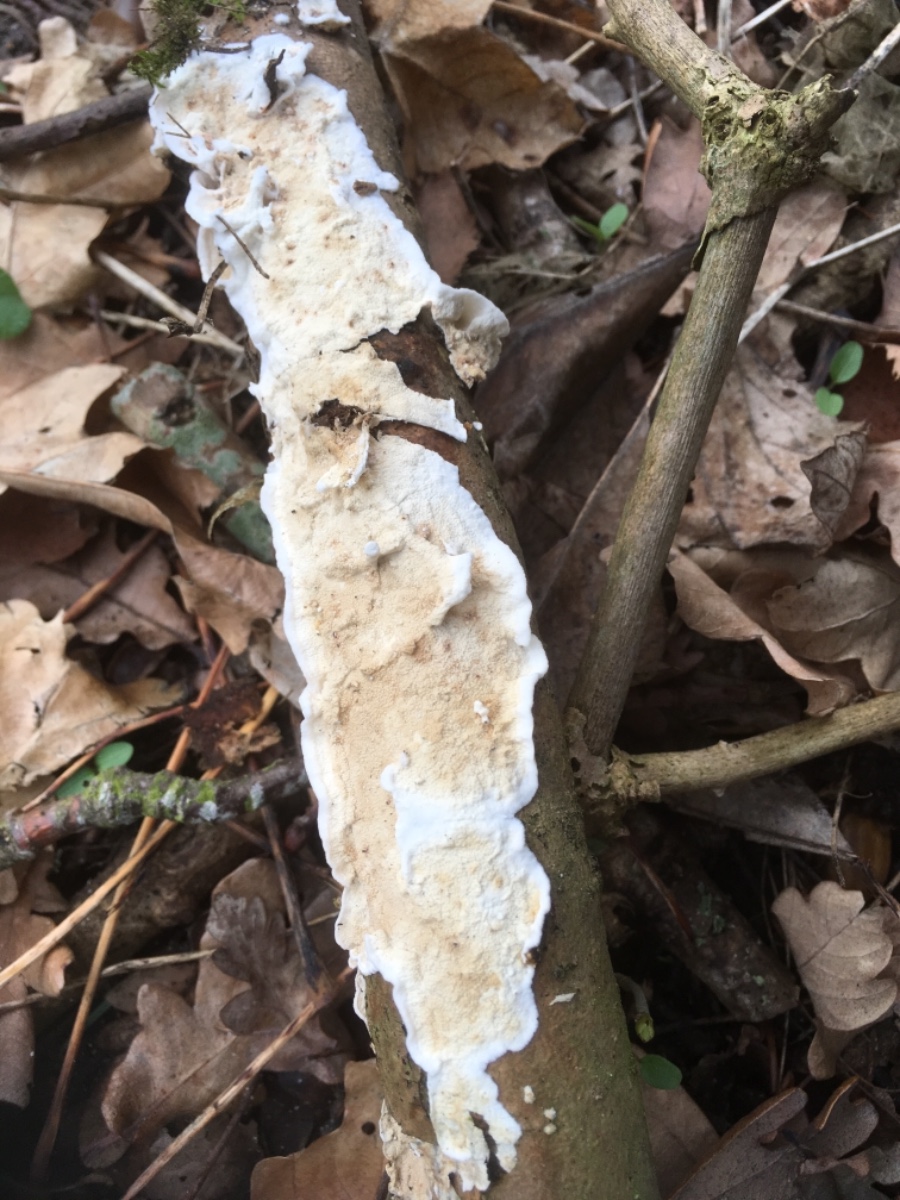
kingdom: Fungi
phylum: Basidiomycota
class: Agaricomycetes
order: Polyporales
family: Irpicaceae
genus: Byssomerulius
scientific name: Byssomerulius corium
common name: læder-åresvamp
